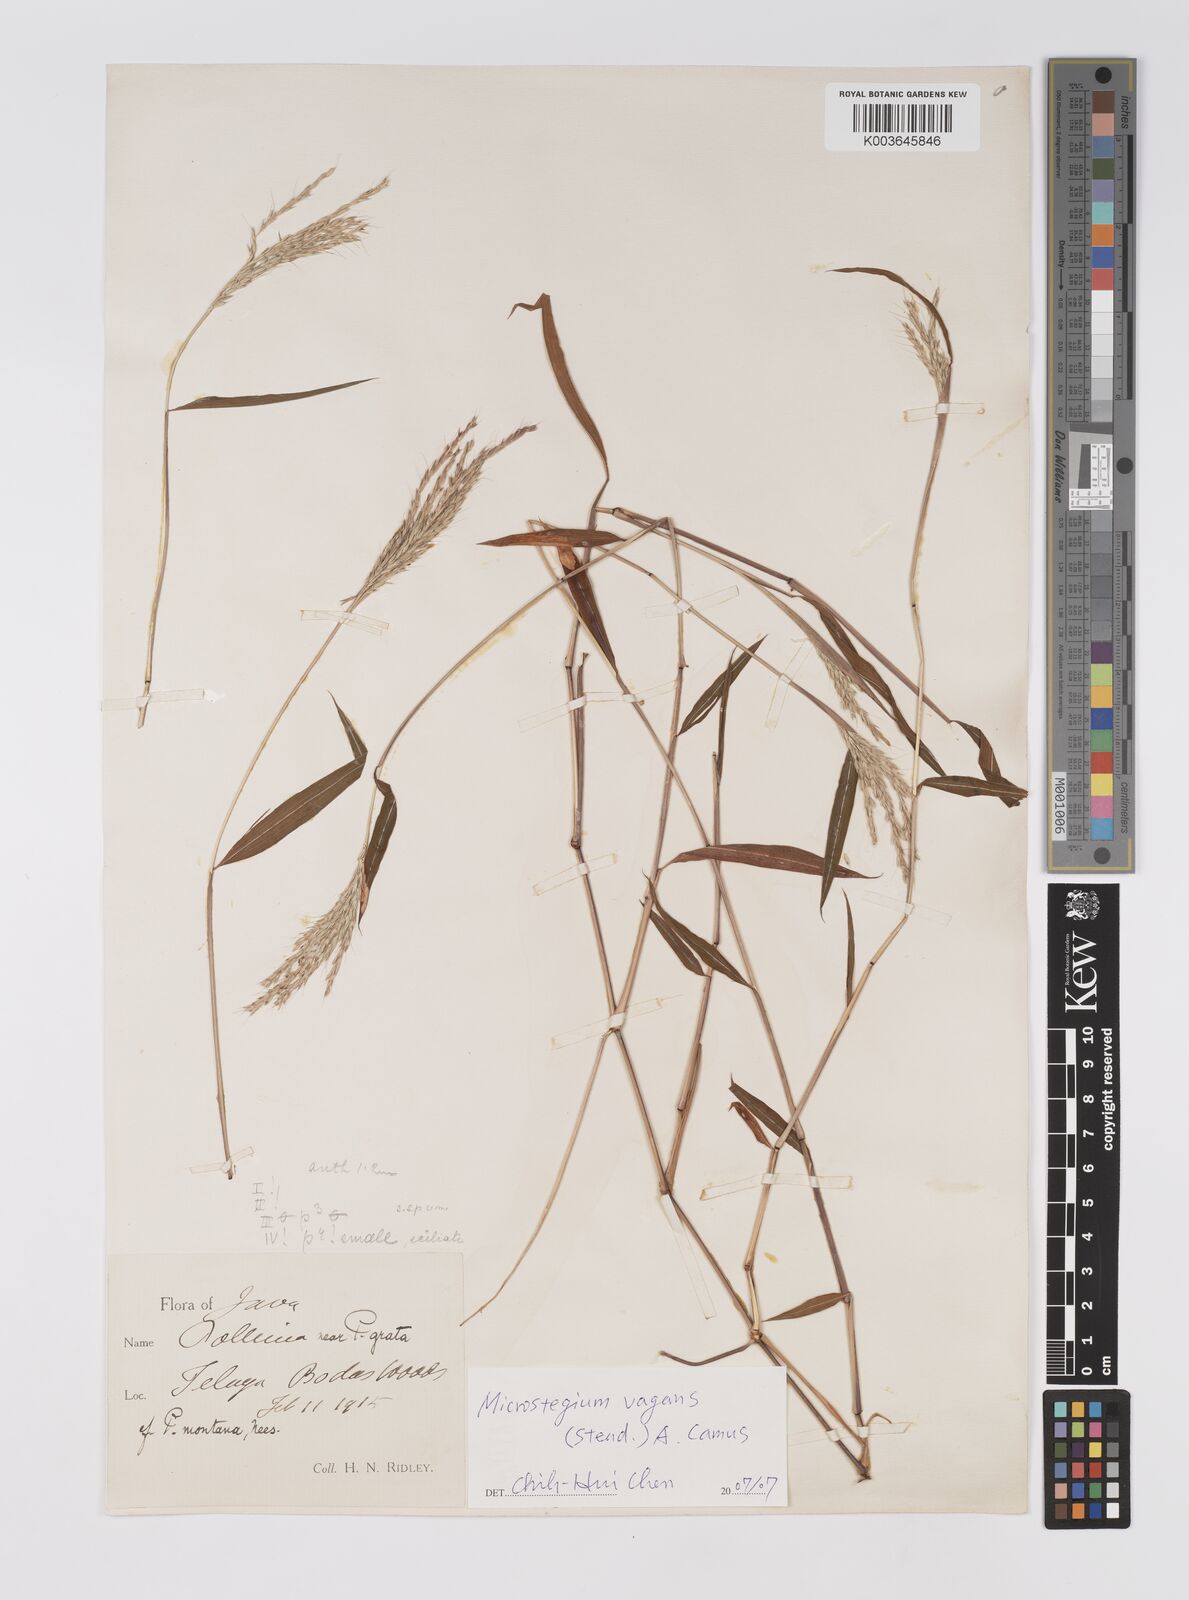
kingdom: Plantae
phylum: Tracheophyta
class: Liliopsida
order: Poales
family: Poaceae
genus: Microstegium
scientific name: Microstegium fasciculatum
